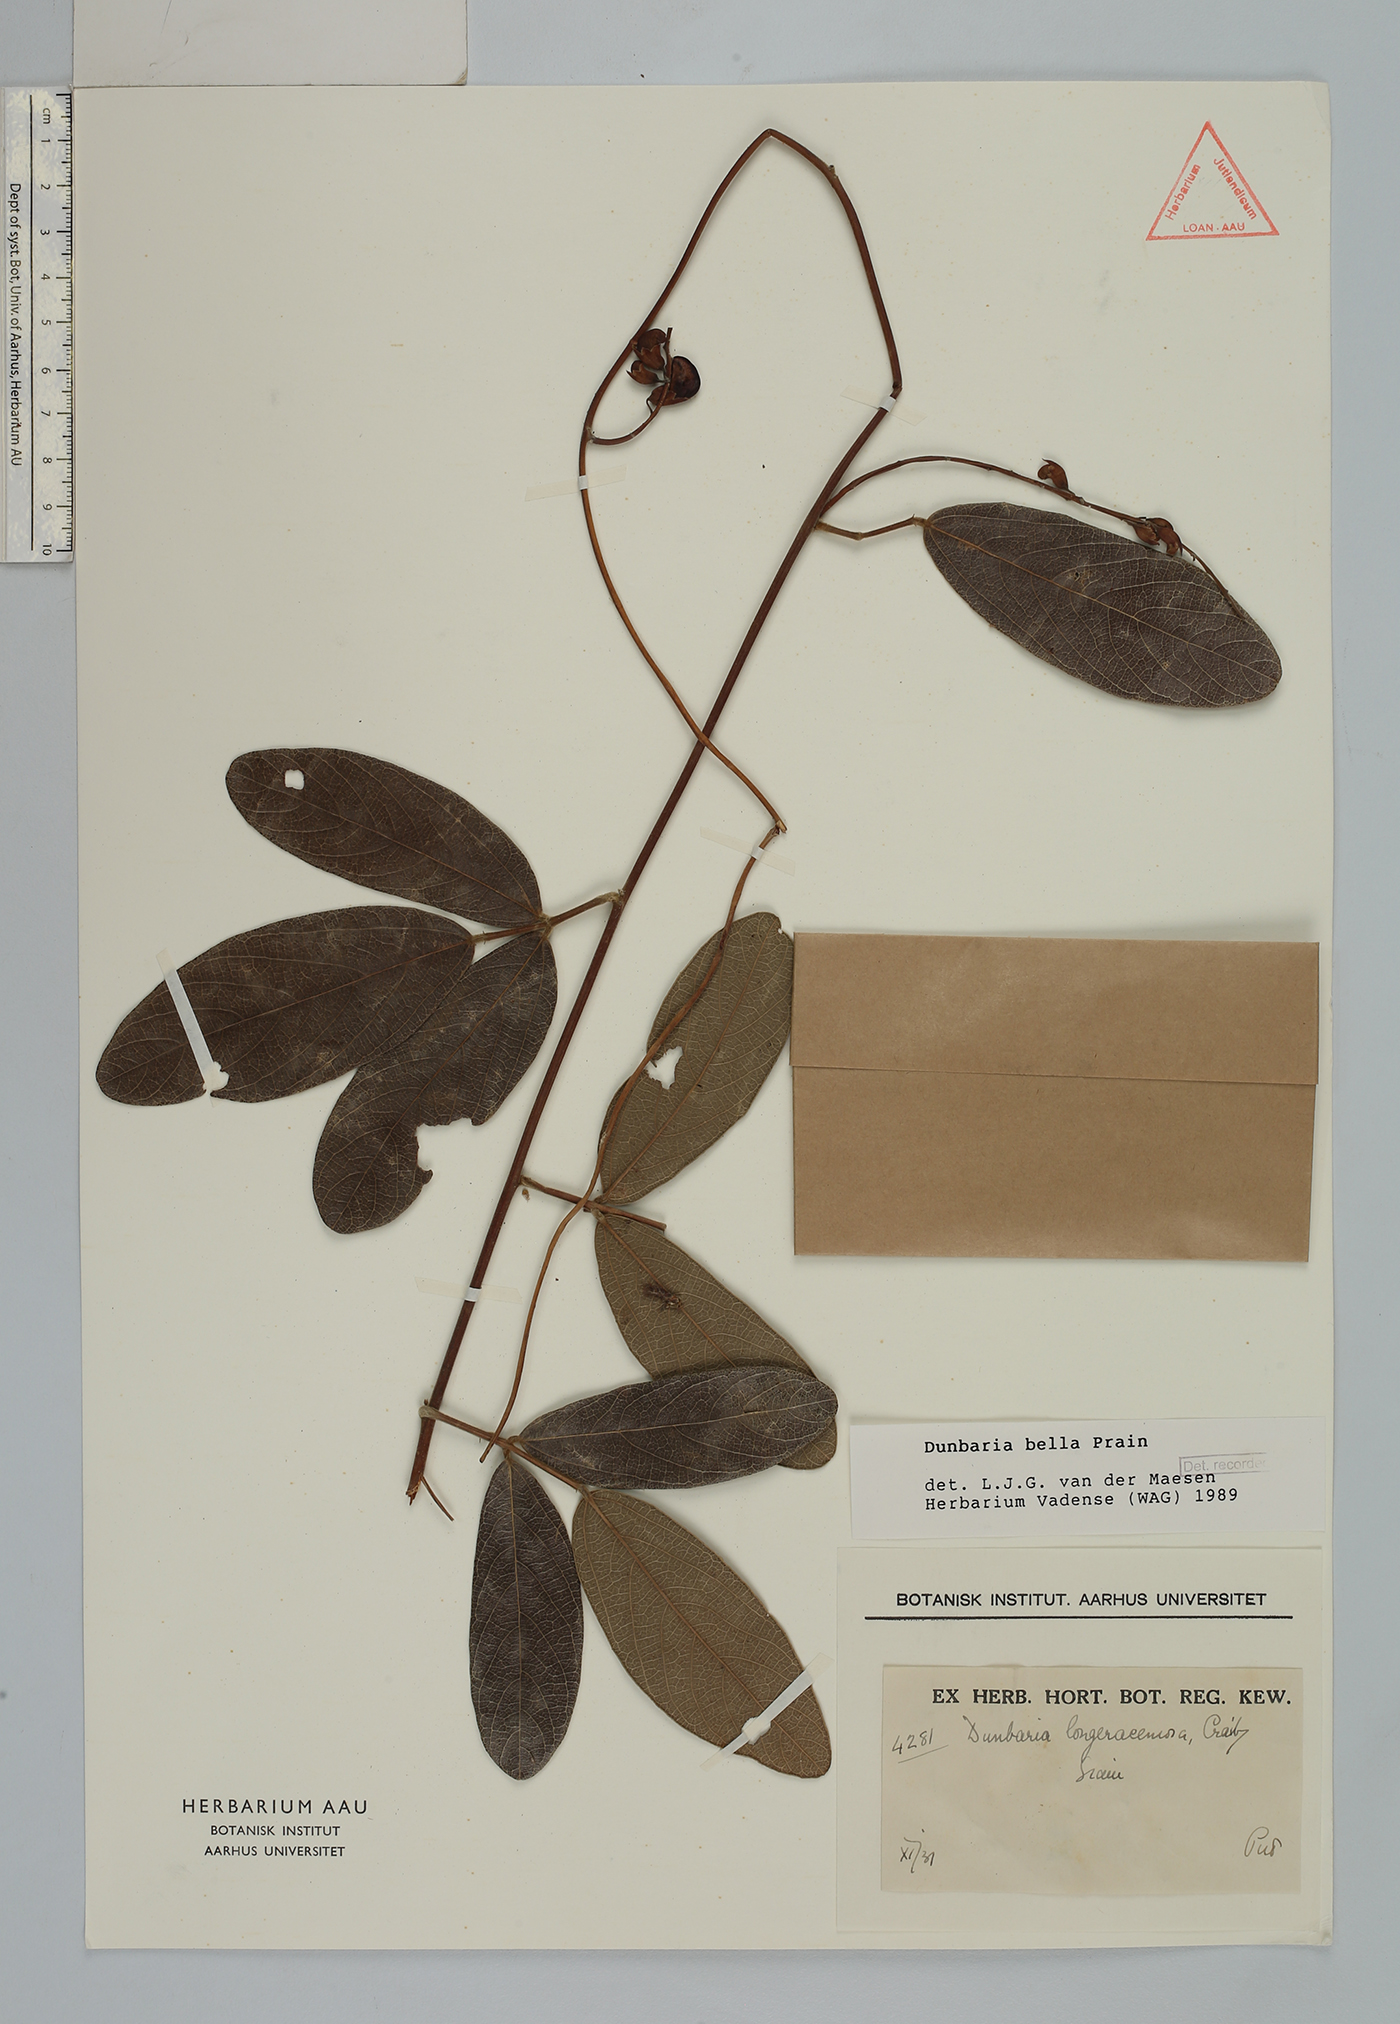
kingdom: Plantae
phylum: Tracheophyta
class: Magnoliopsida
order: Fabales
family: Fabaceae
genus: Dunbaria
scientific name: Dunbaria bella
